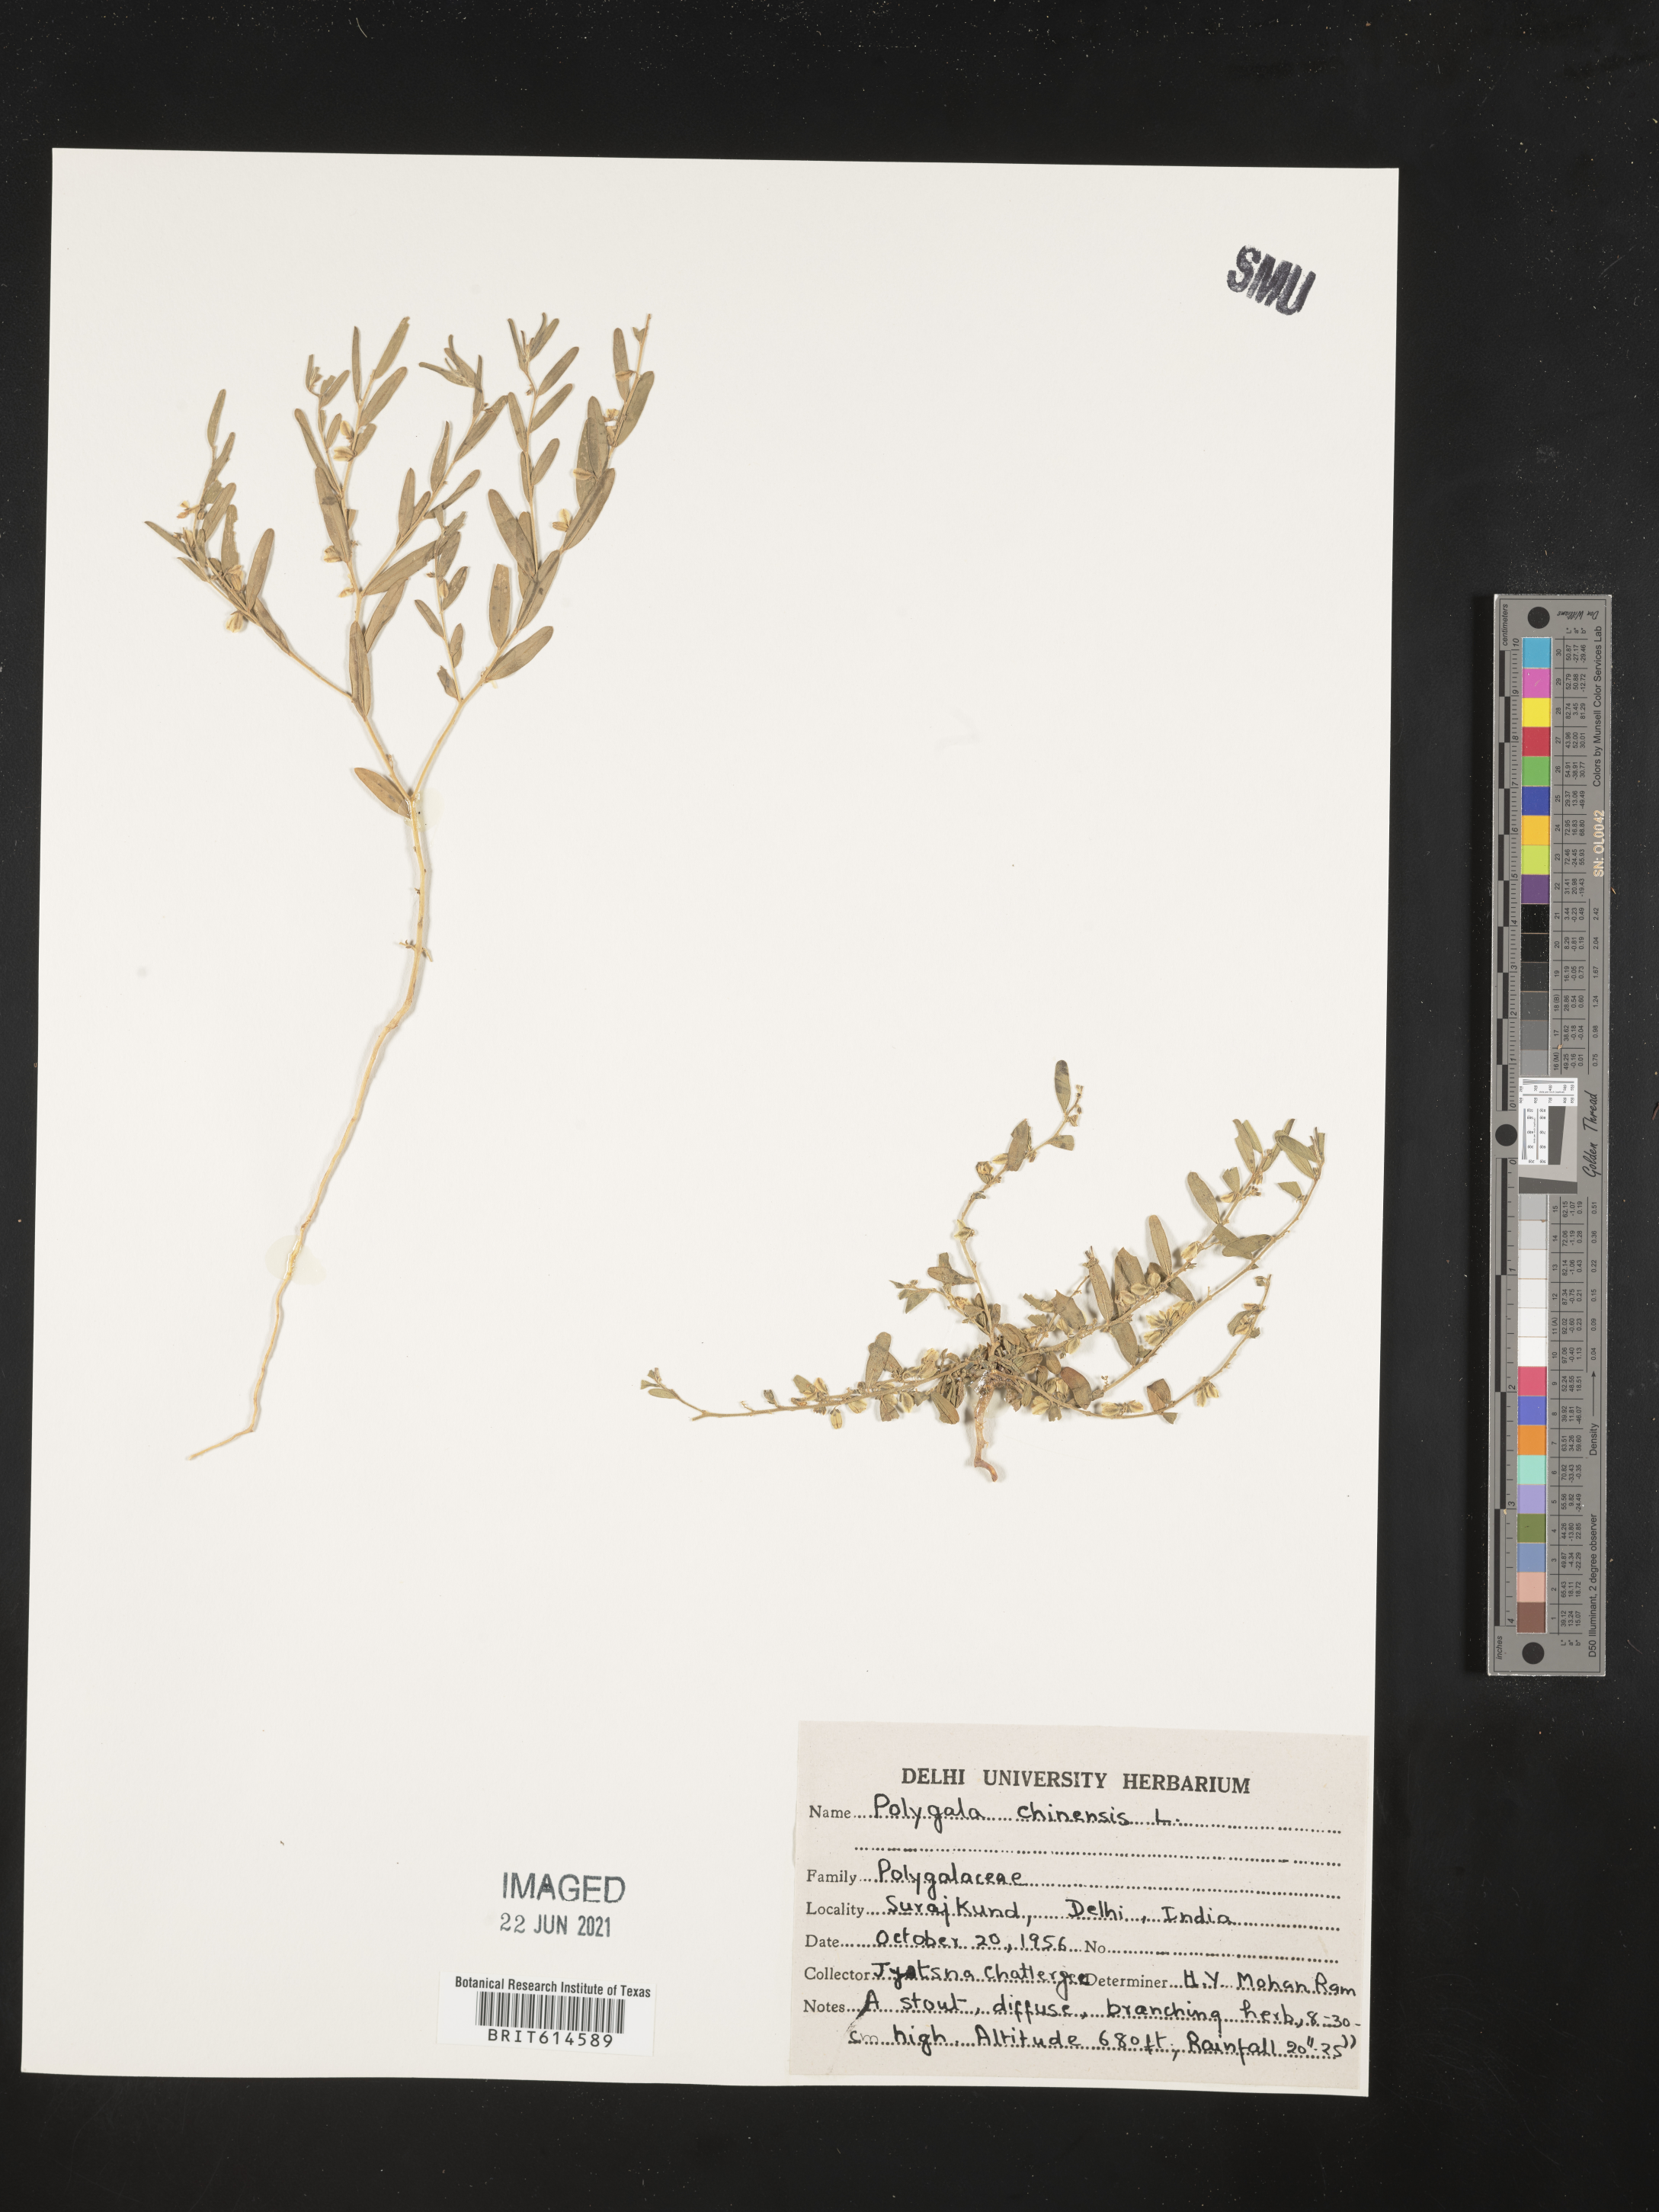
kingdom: Plantae
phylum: Tracheophyta
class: Magnoliopsida
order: Fabales
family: Polygalaceae
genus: Polygala
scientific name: Polygala glomerata
